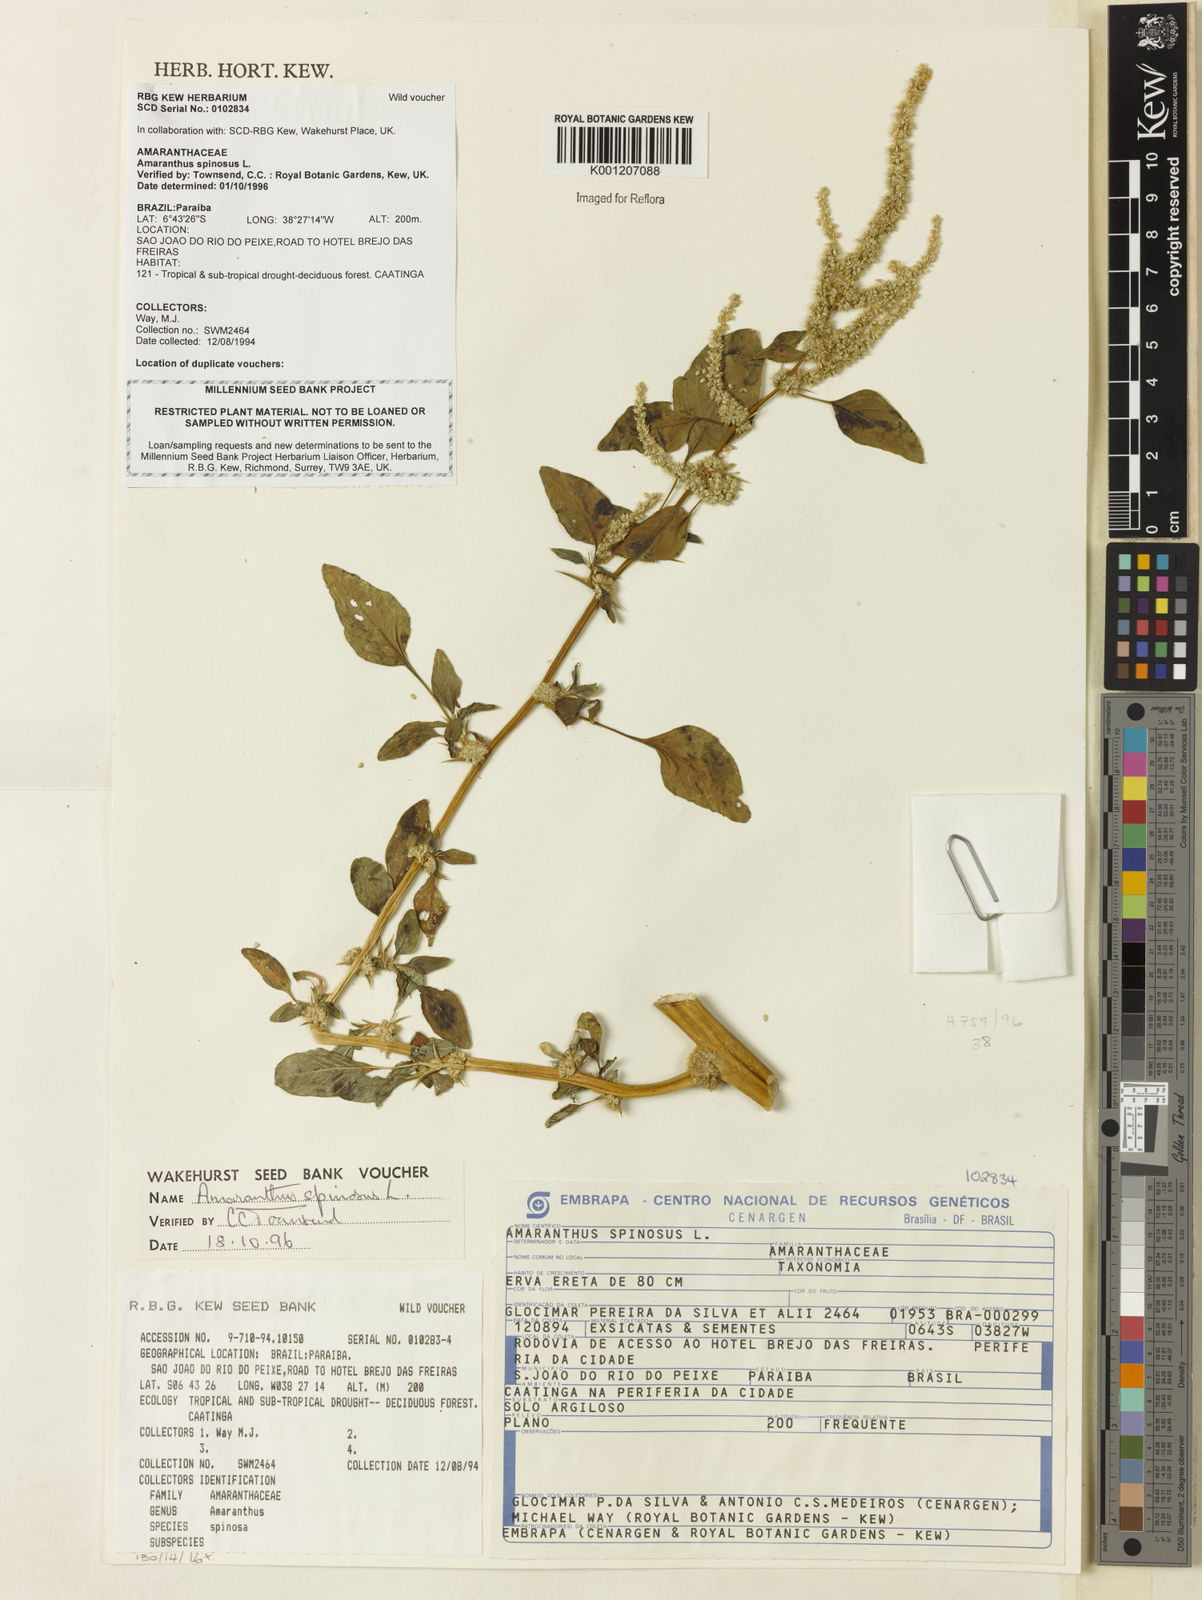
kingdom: Plantae
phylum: Tracheophyta
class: Magnoliopsida
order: Caryophyllales
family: Amaranthaceae
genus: Amaranthus
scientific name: Amaranthus spinosus
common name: Spiny amaranth
